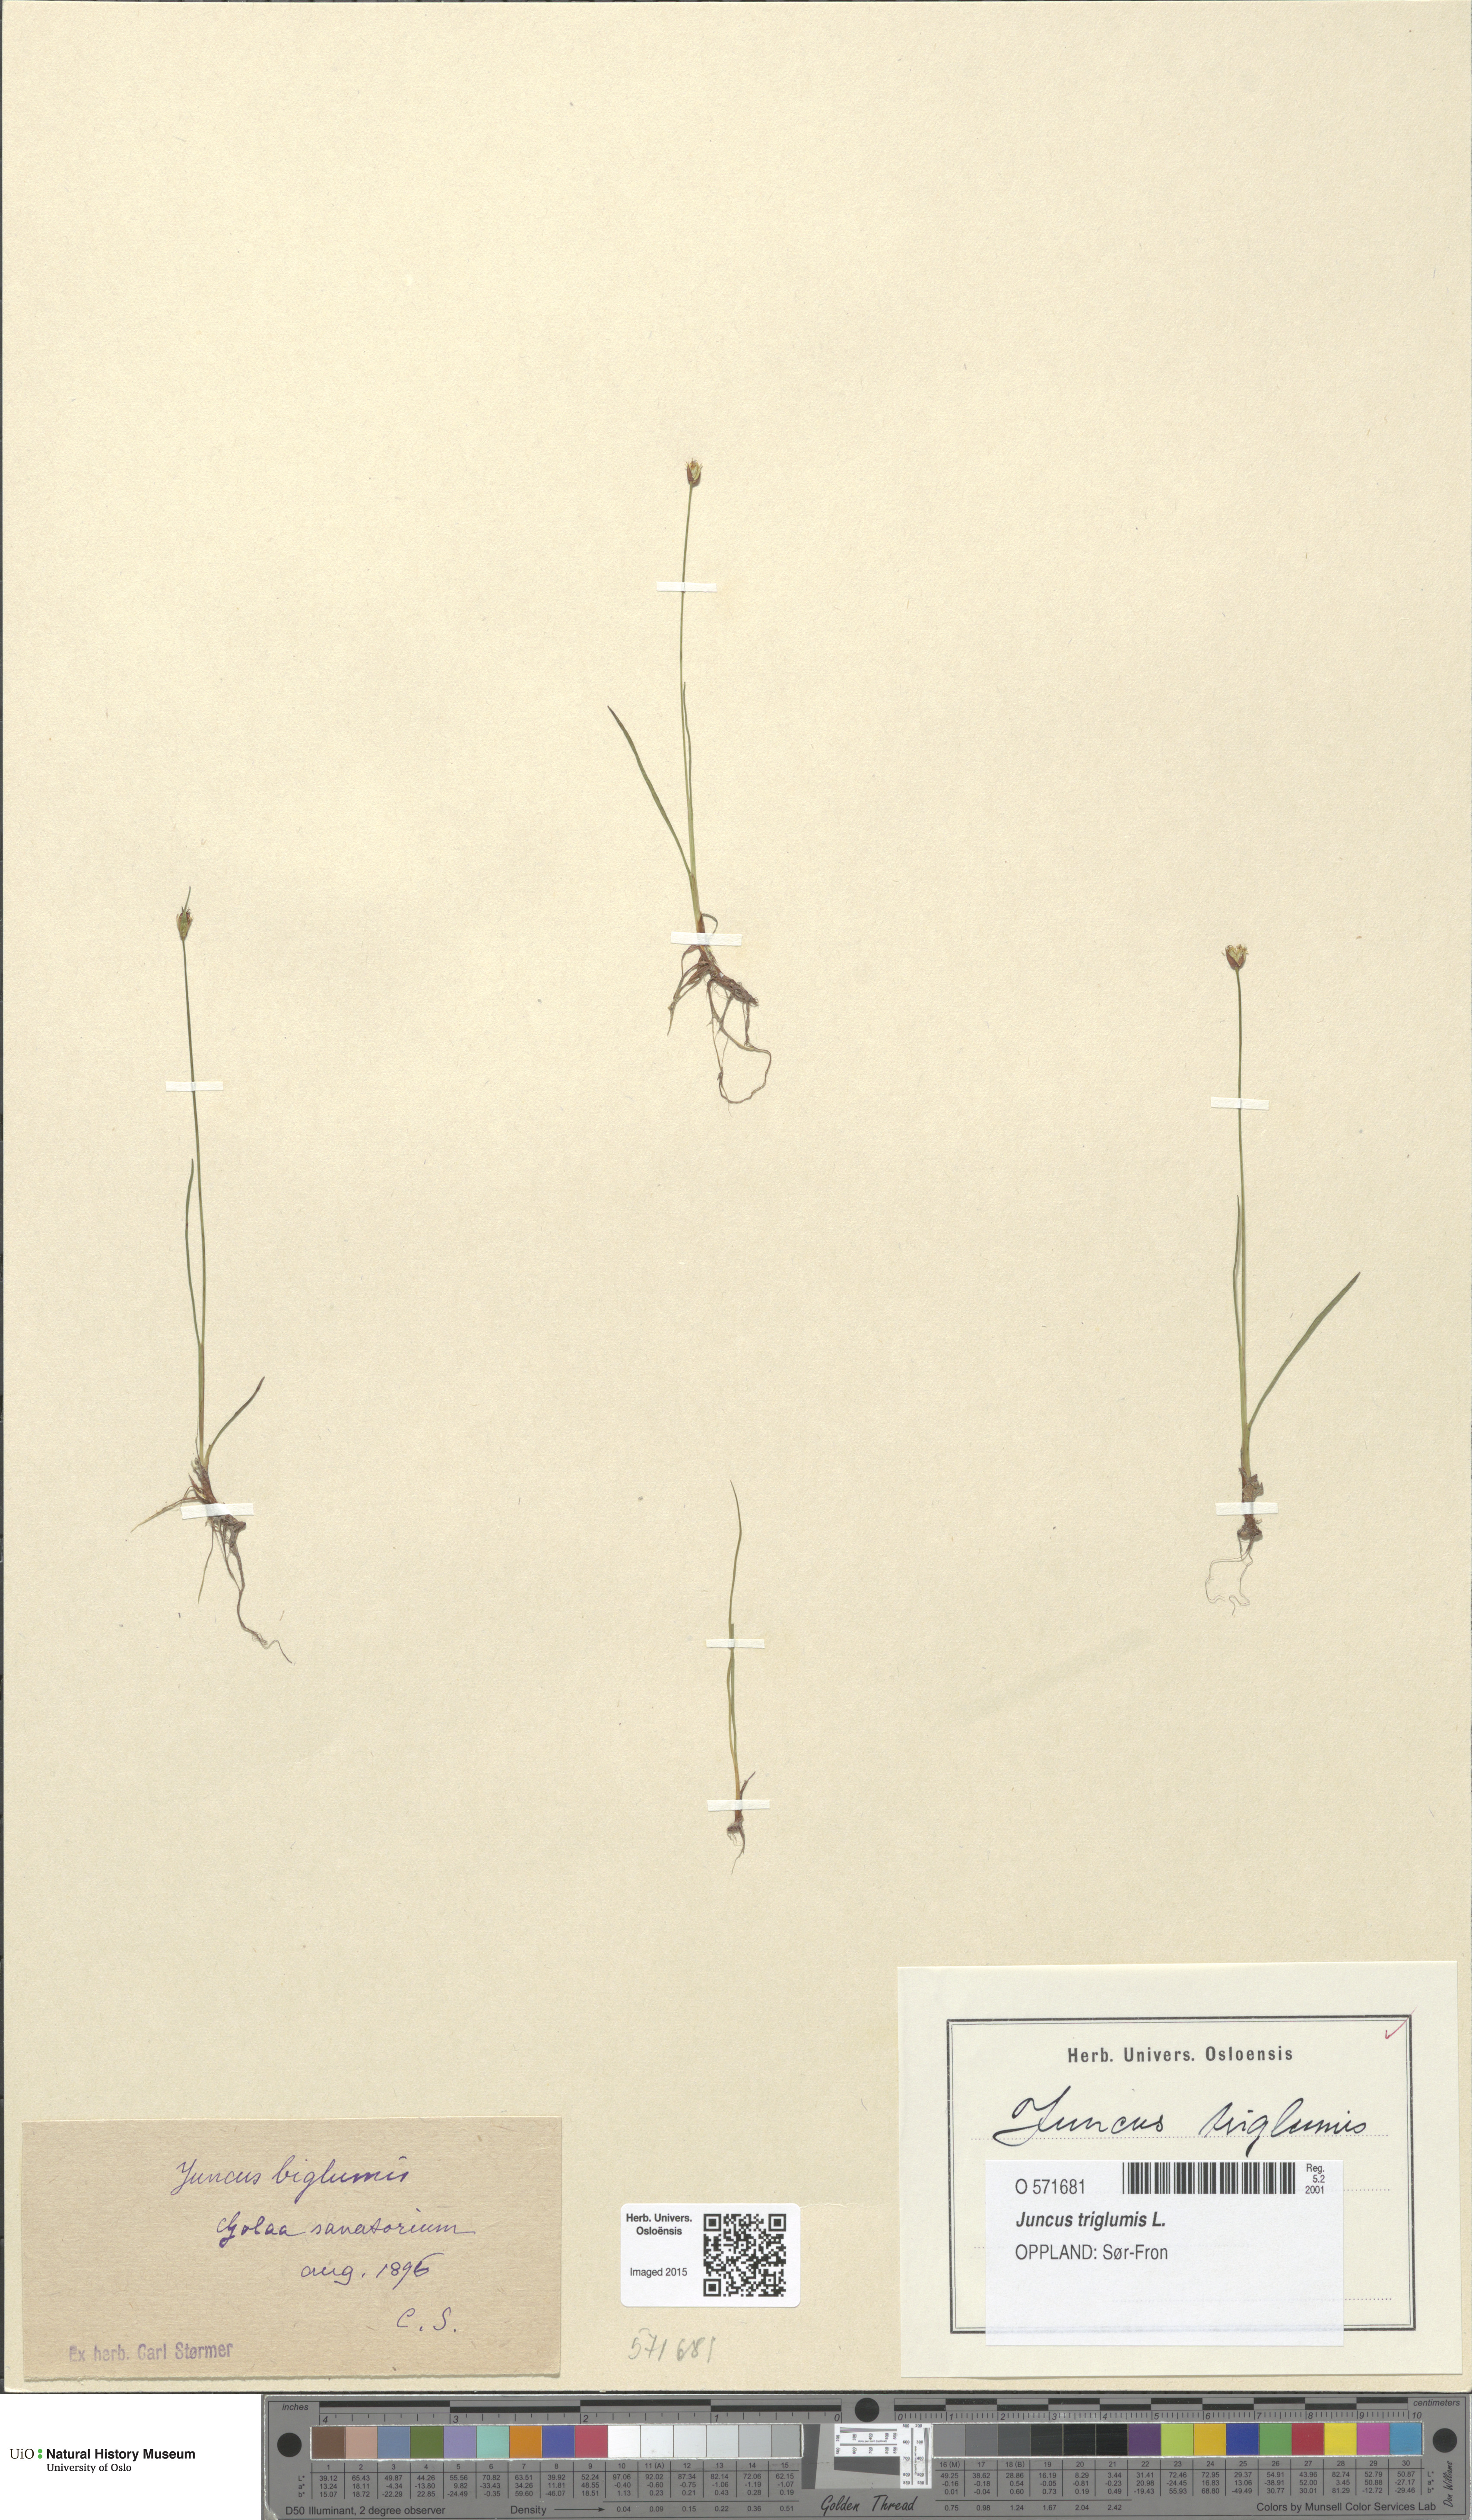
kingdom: Plantae
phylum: Tracheophyta
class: Liliopsida
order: Poales
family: Juncaceae
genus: Juncus
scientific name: Juncus triglumis
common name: Three-flowered rush
